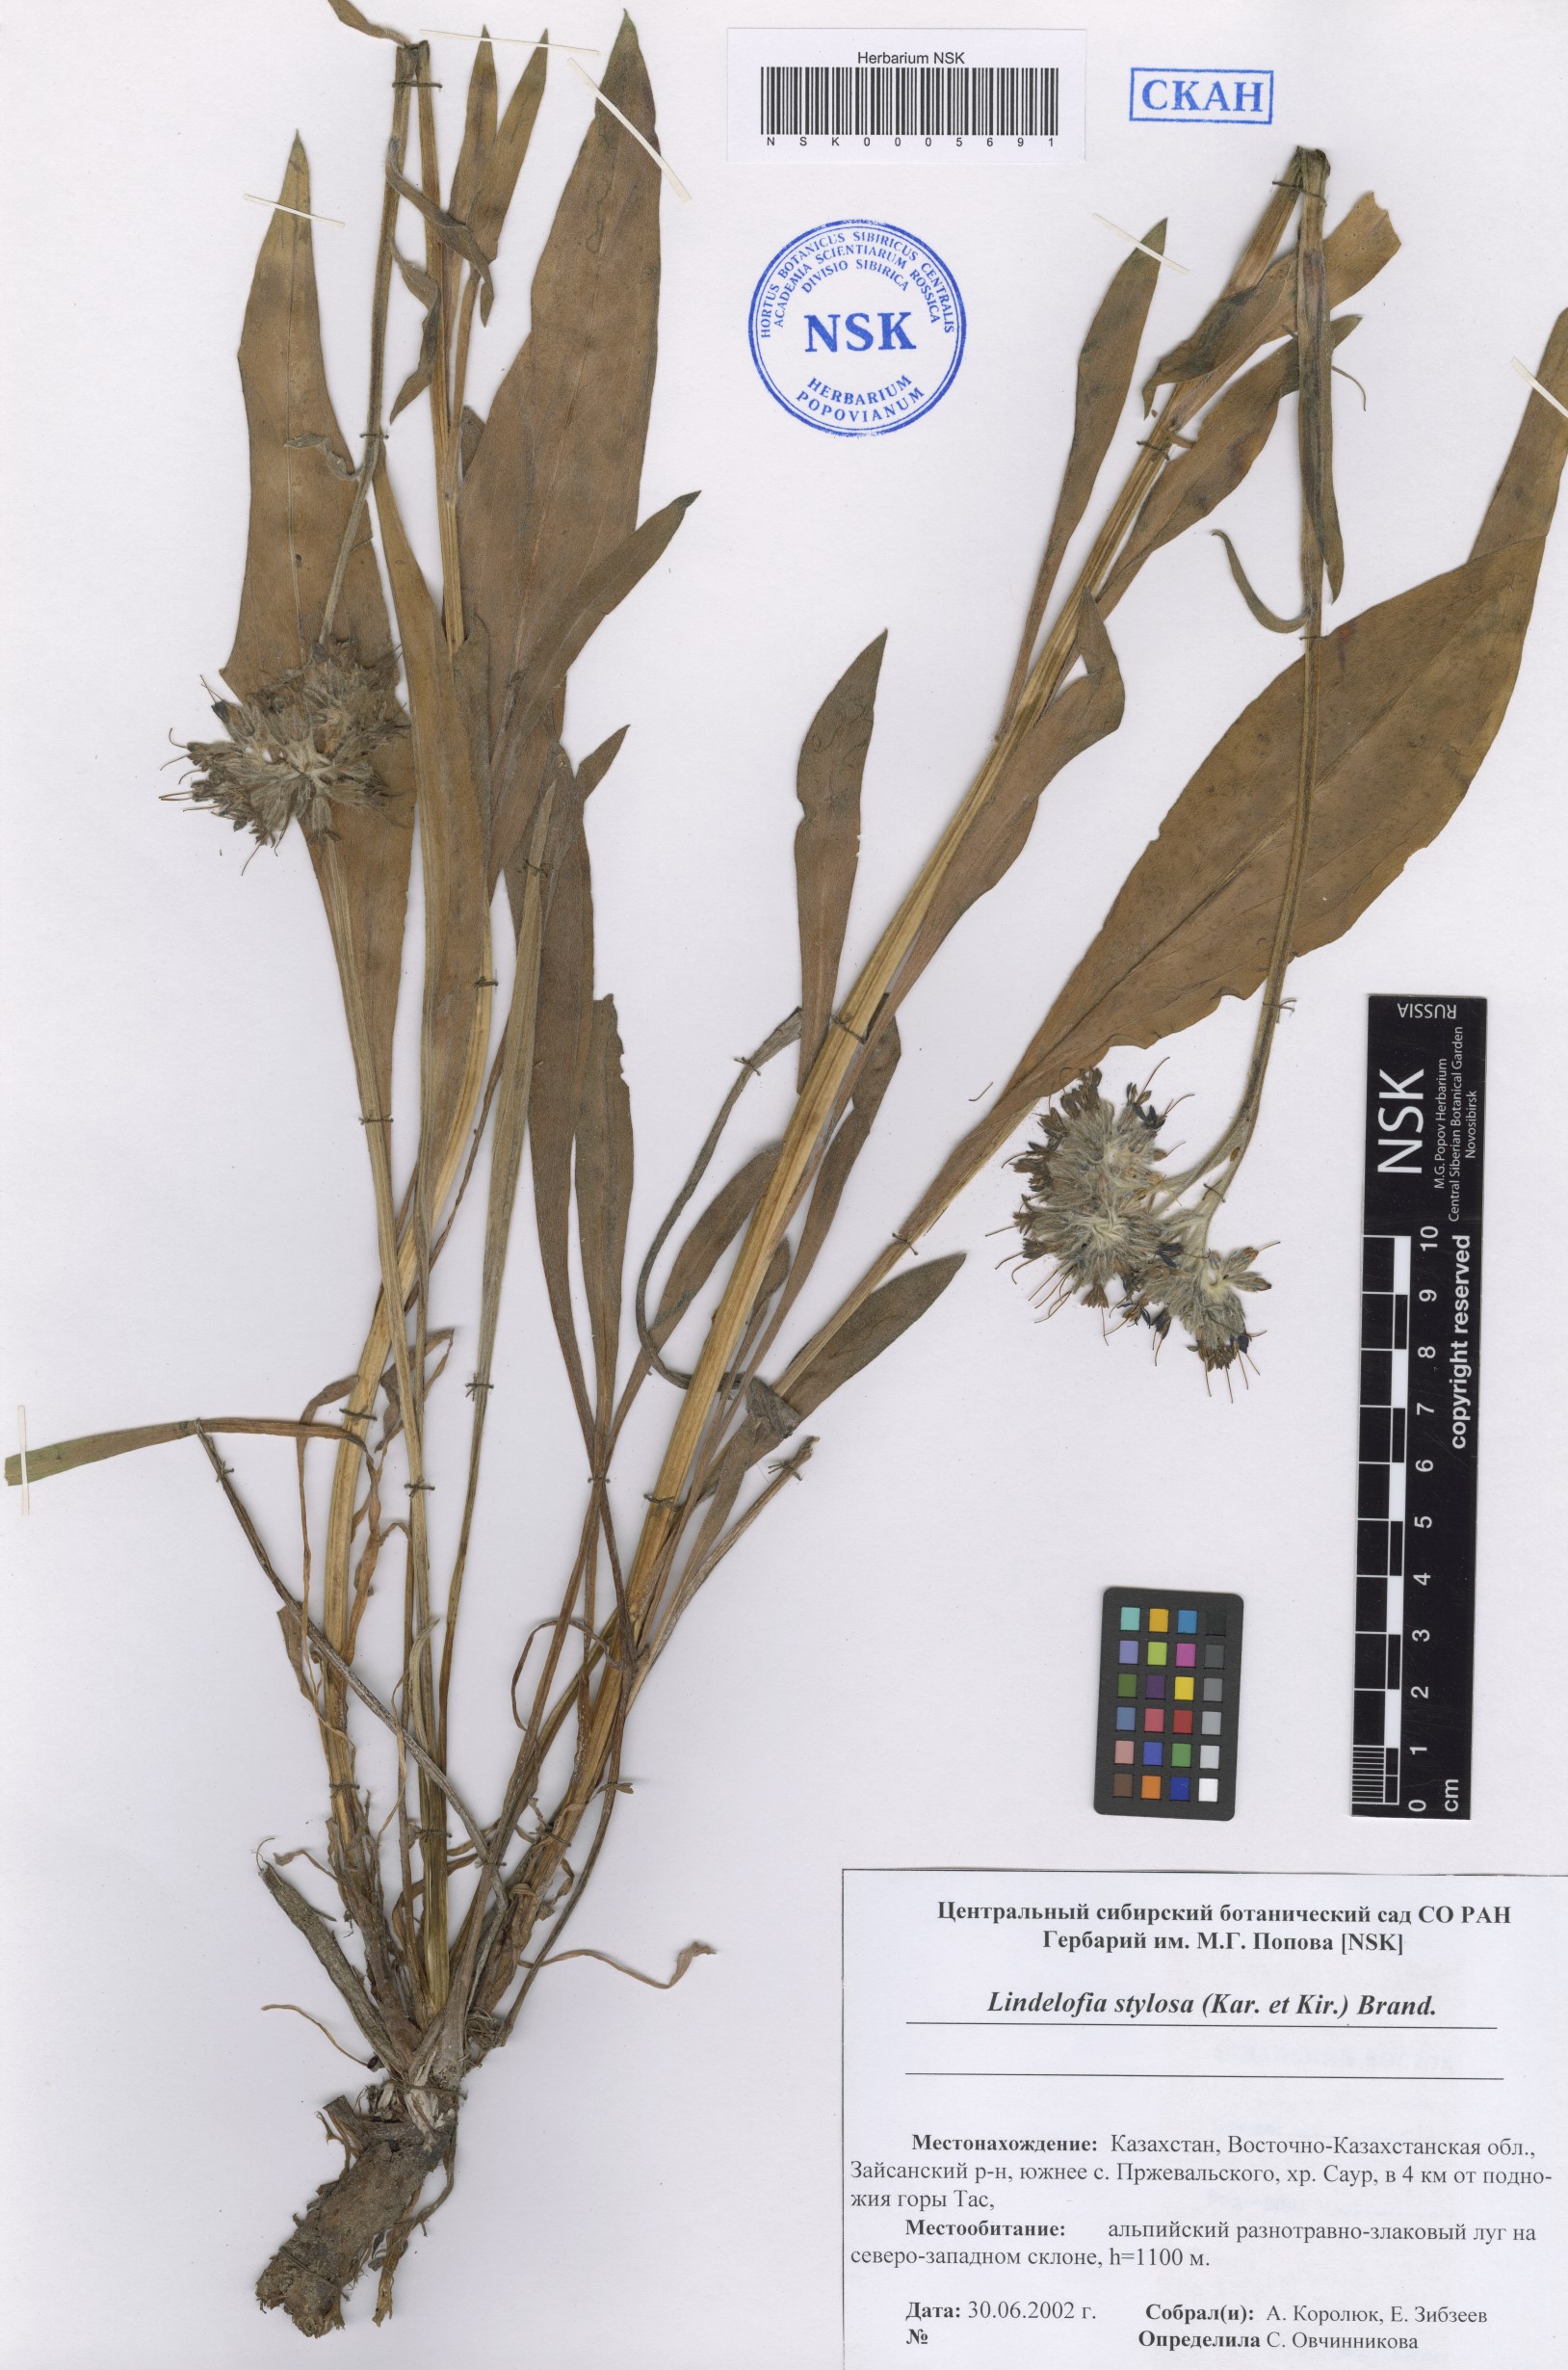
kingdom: Plantae
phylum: Tracheophyta
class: Magnoliopsida
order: Boraginales
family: Boraginaceae
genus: Lindelofia
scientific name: Lindelofia stylosa
